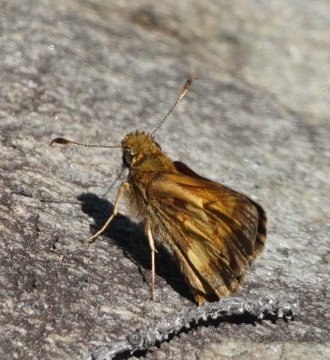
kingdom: Animalia
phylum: Arthropoda
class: Insecta
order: Lepidoptera
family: Hesperiidae
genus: Lon
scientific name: Lon hobomok
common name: Hobomok Skipper
